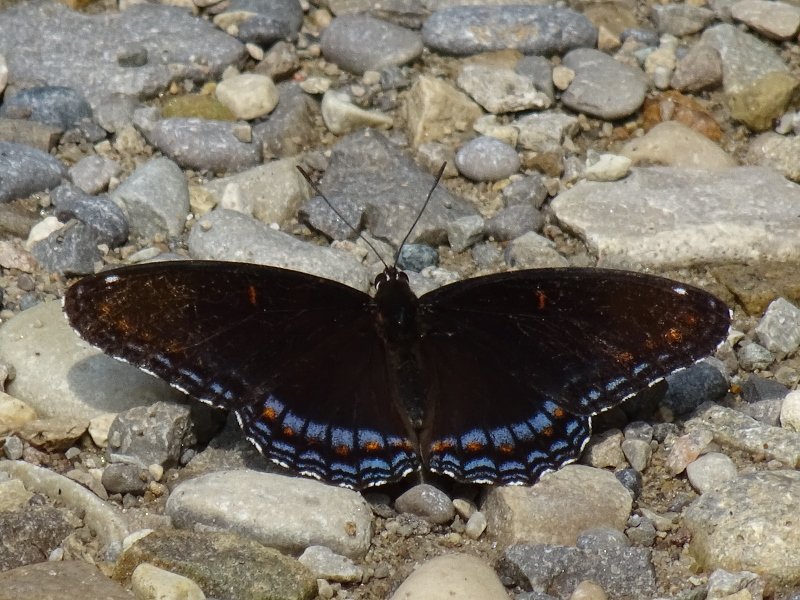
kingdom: Animalia
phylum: Arthropoda
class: Insecta
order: Lepidoptera
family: Nymphalidae
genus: Limenitis
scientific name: Limenitis astyanax
